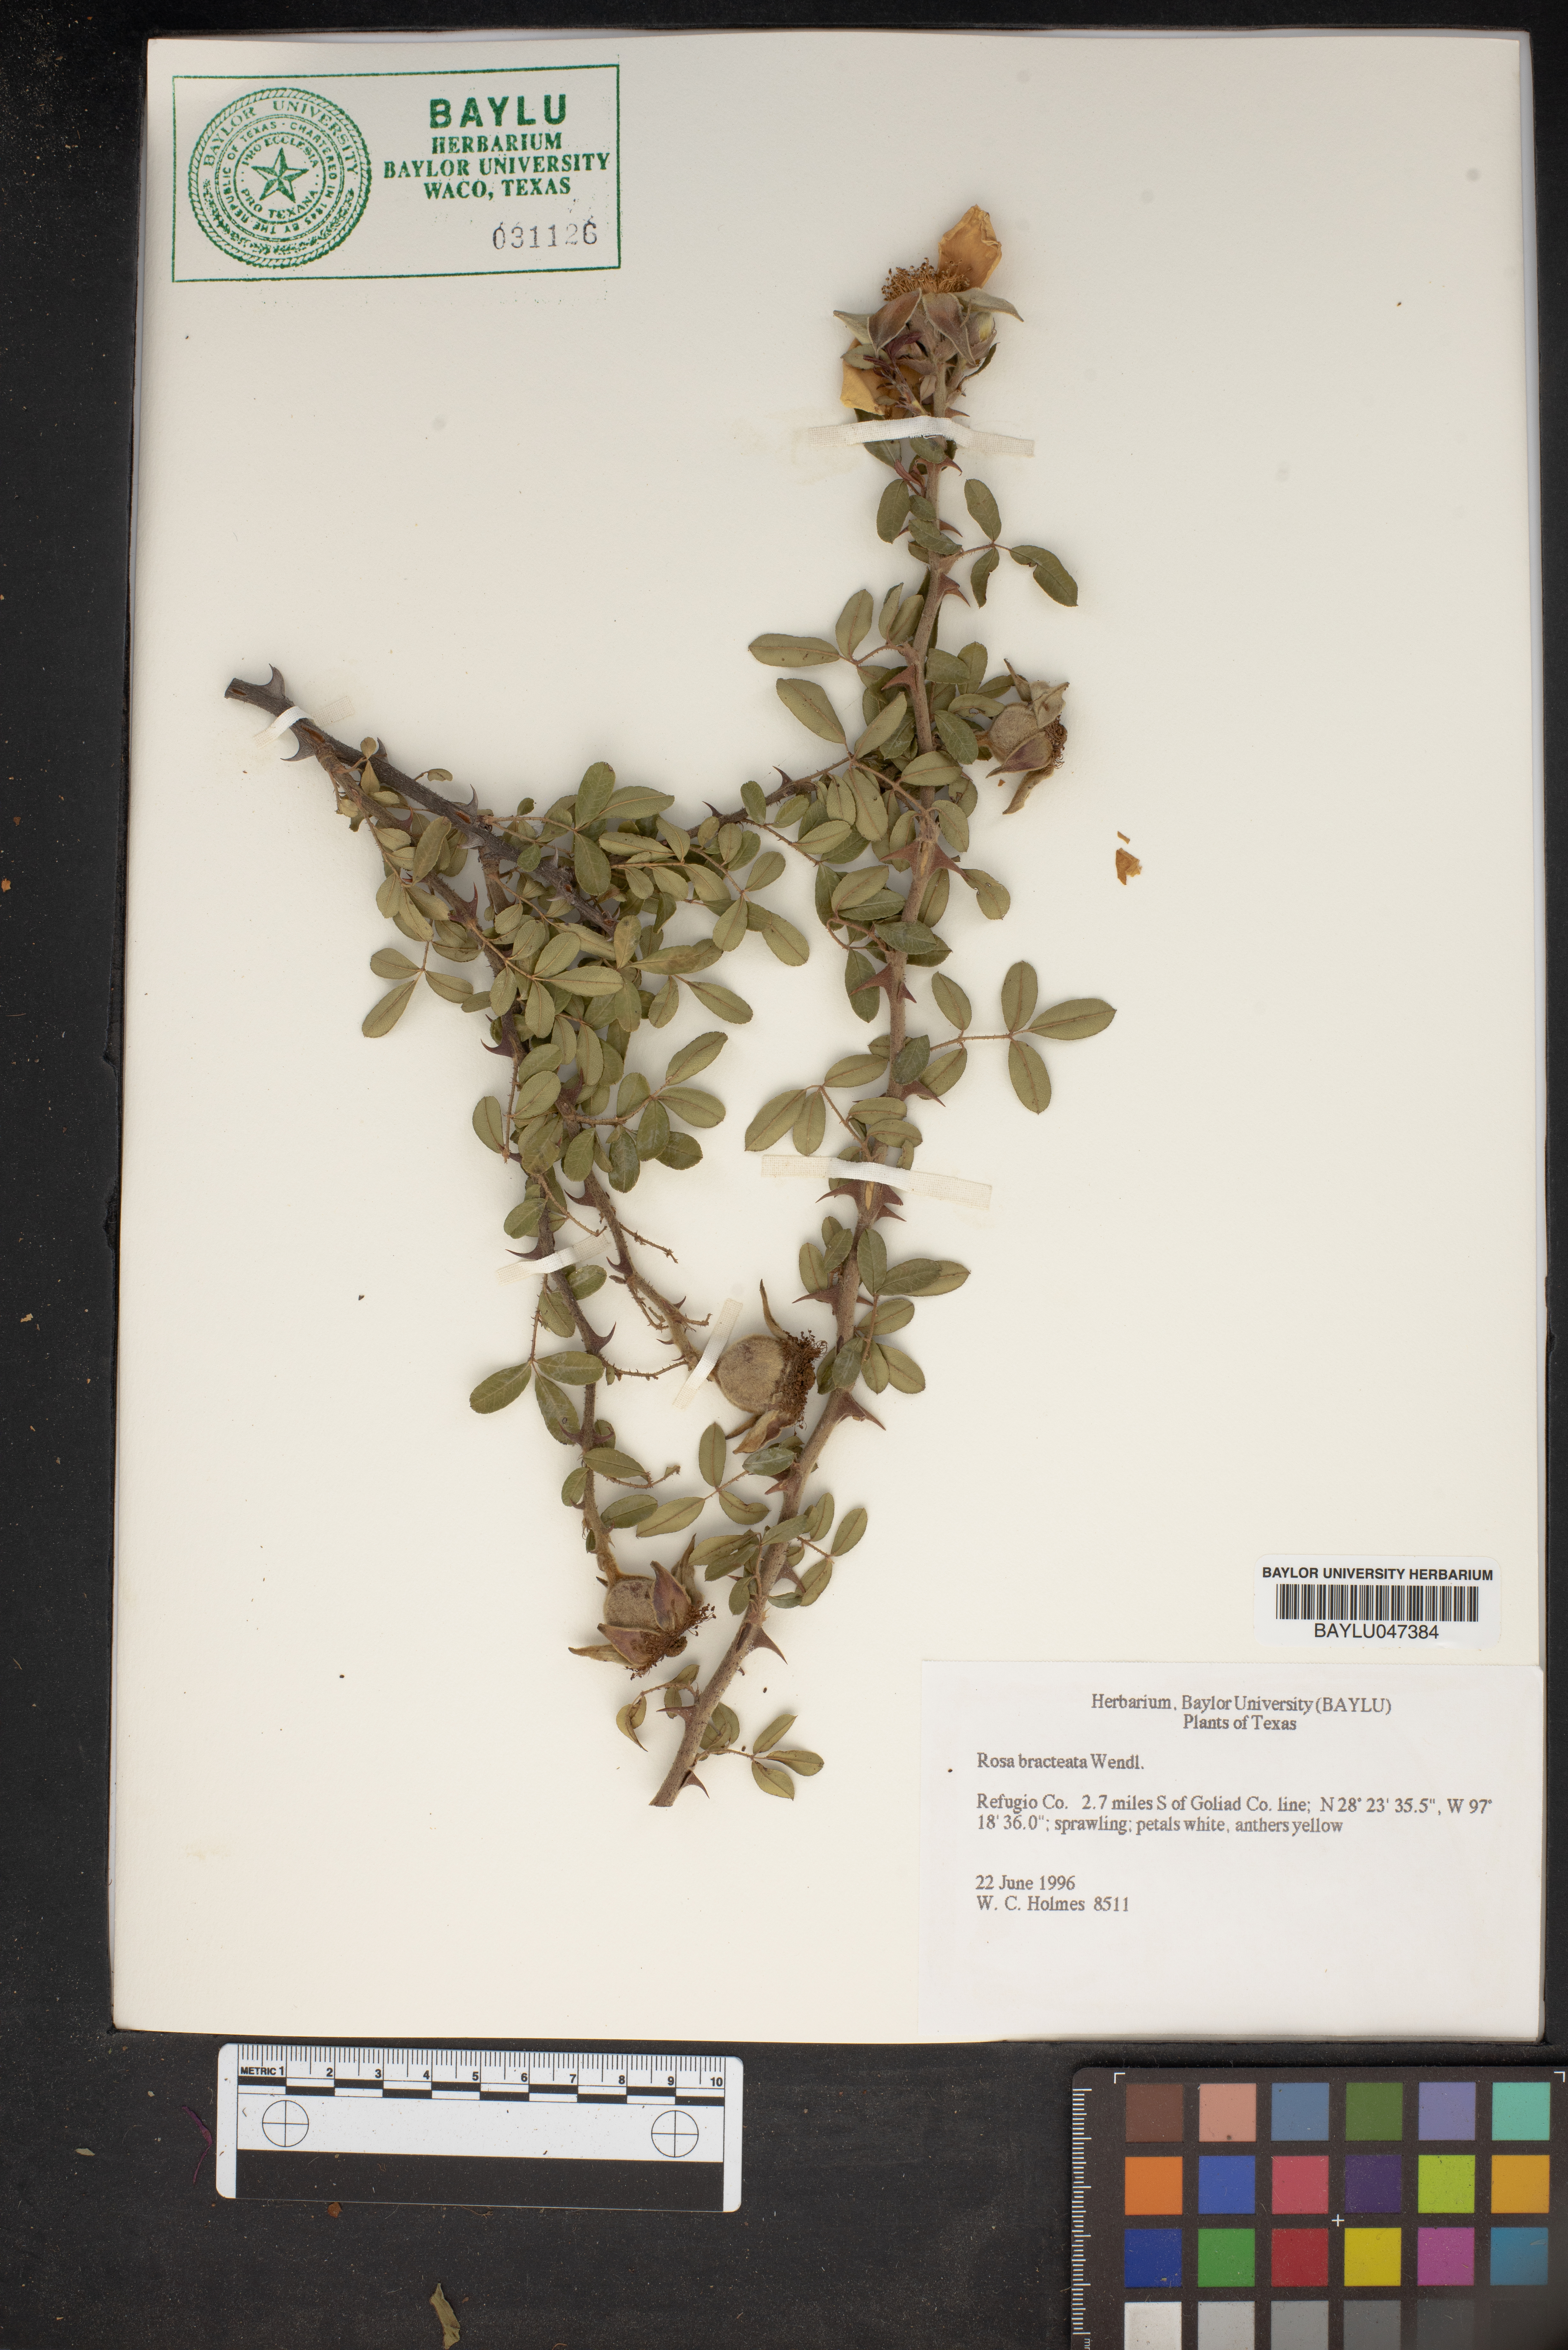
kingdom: Plantae
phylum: Tracheophyta
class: Magnoliopsida
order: Rosales
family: Rosaceae
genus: Rosa
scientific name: Rosa bracteata
